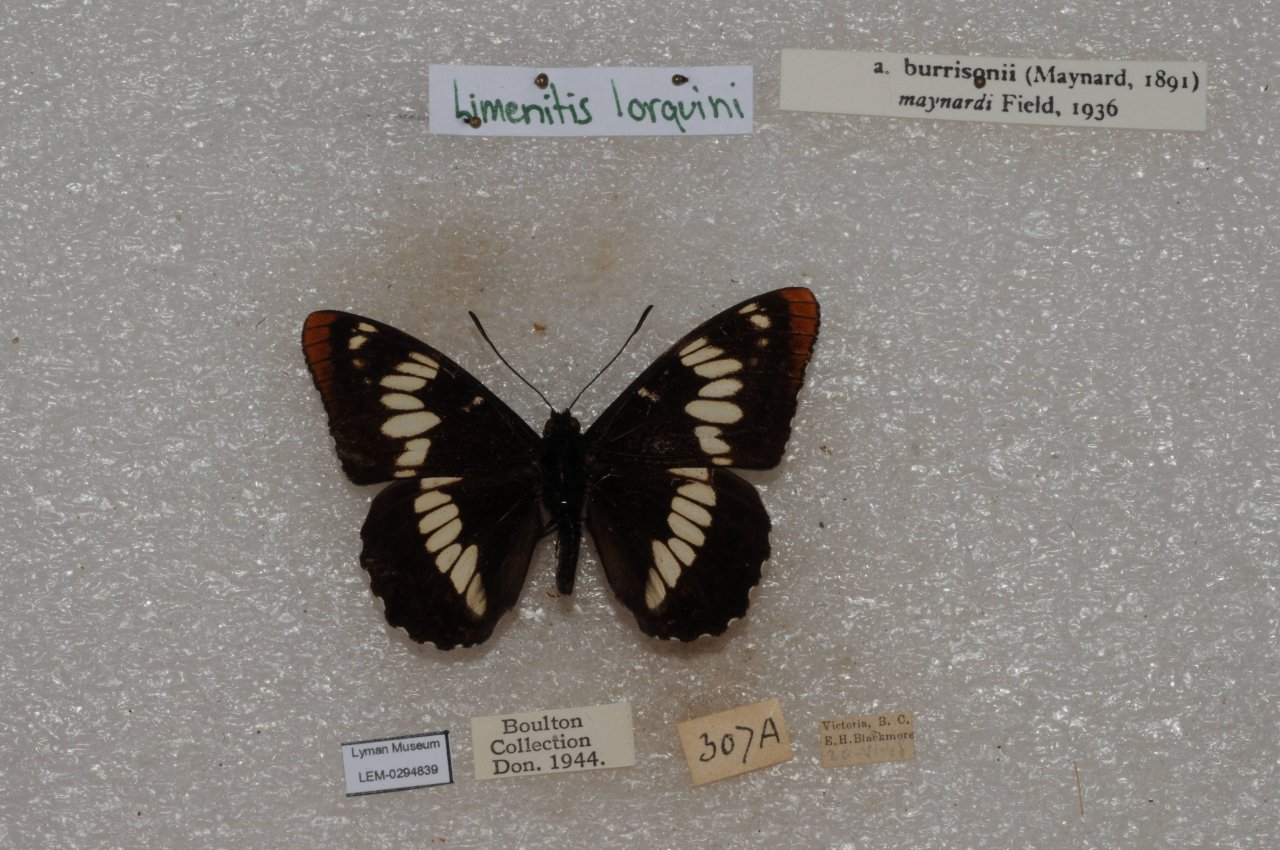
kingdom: Animalia
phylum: Arthropoda
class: Insecta
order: Lepidoptera
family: Nymphalidae
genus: Limenitis
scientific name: Limenitis lorquini
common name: Lorquin's Admiral
